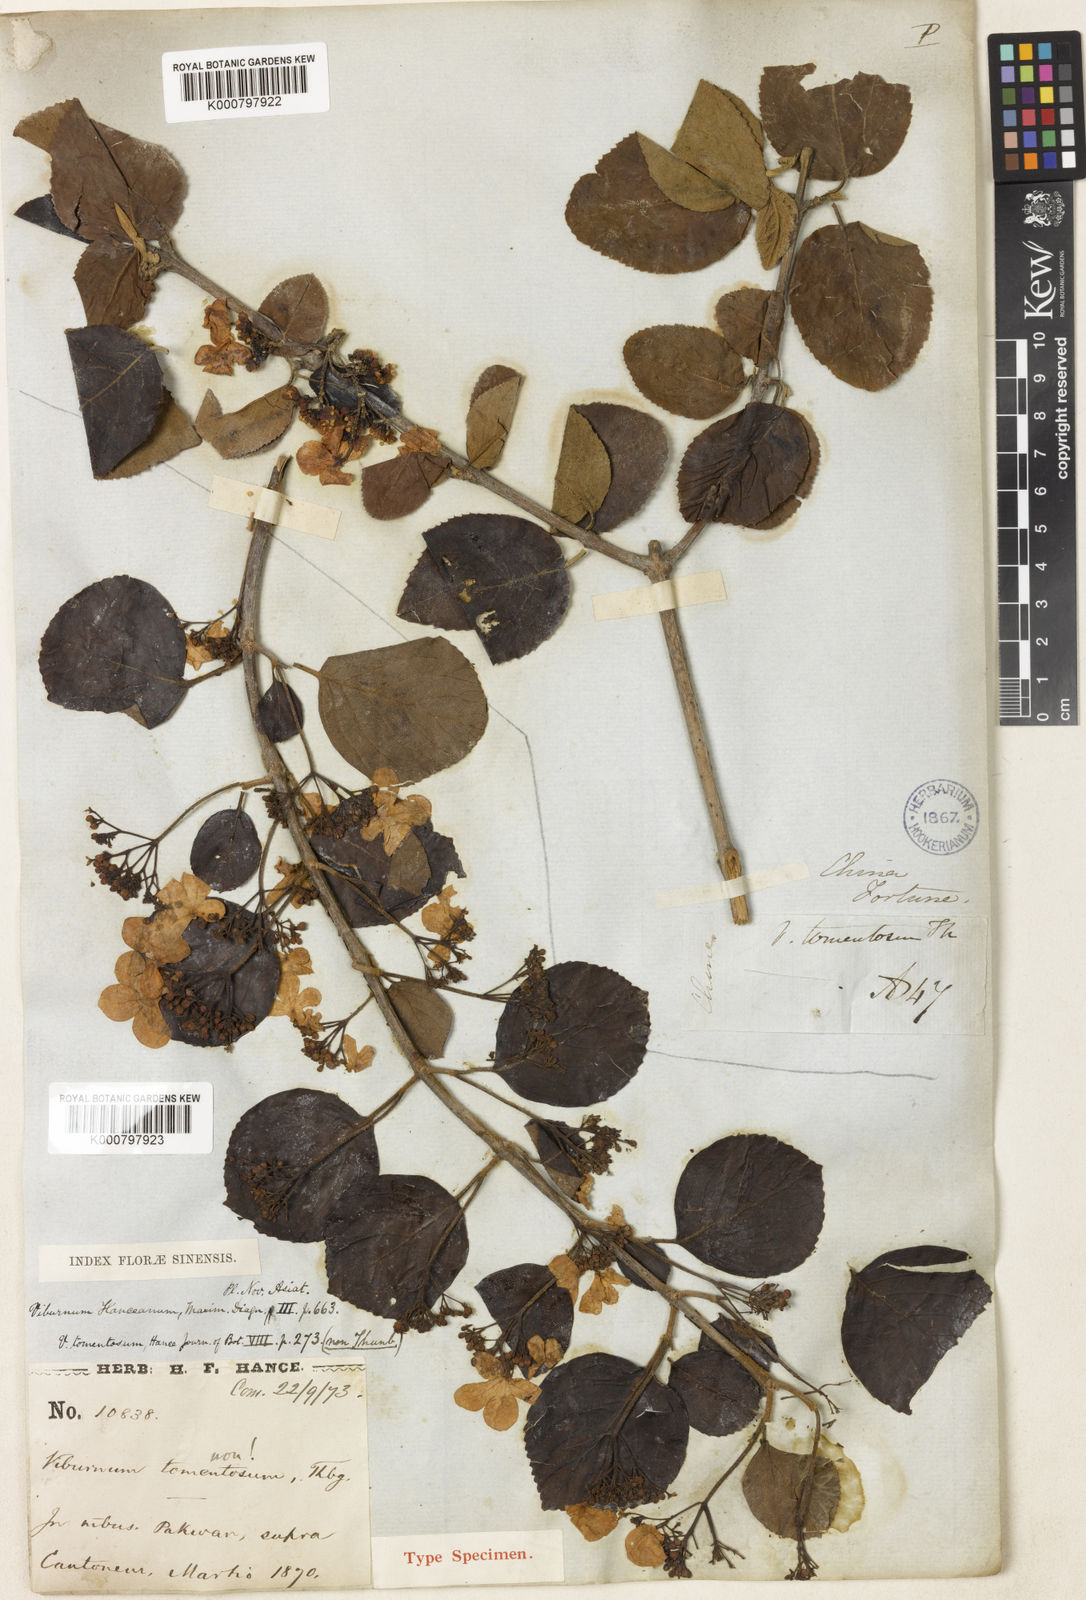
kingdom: Plantae
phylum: Tracheophyta
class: Magnoliopsida
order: Dipsacales
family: Viburnaceae
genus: Viburnum
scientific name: Viburnum hanceanum
